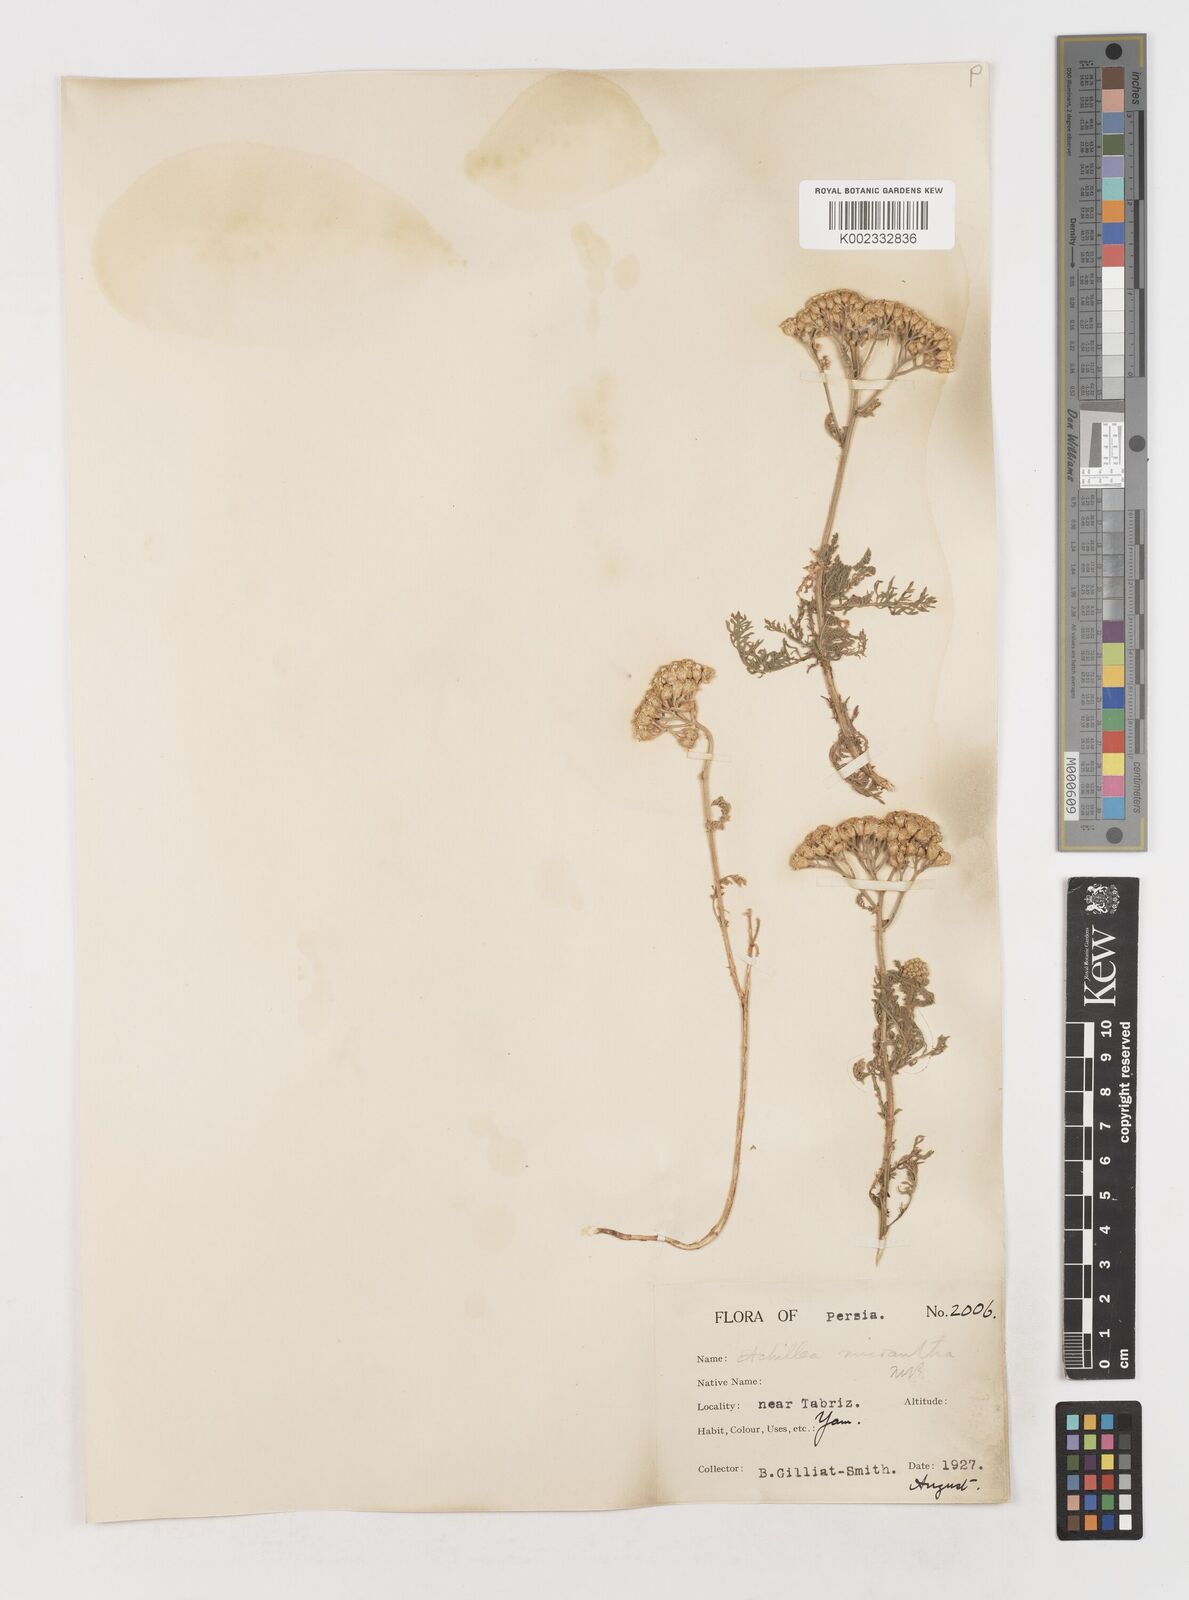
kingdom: Plantae
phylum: Tracheophyta
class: Magnoliopsida
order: Asterales
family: Asteraceae
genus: Achillea
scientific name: Achillea micrantha
